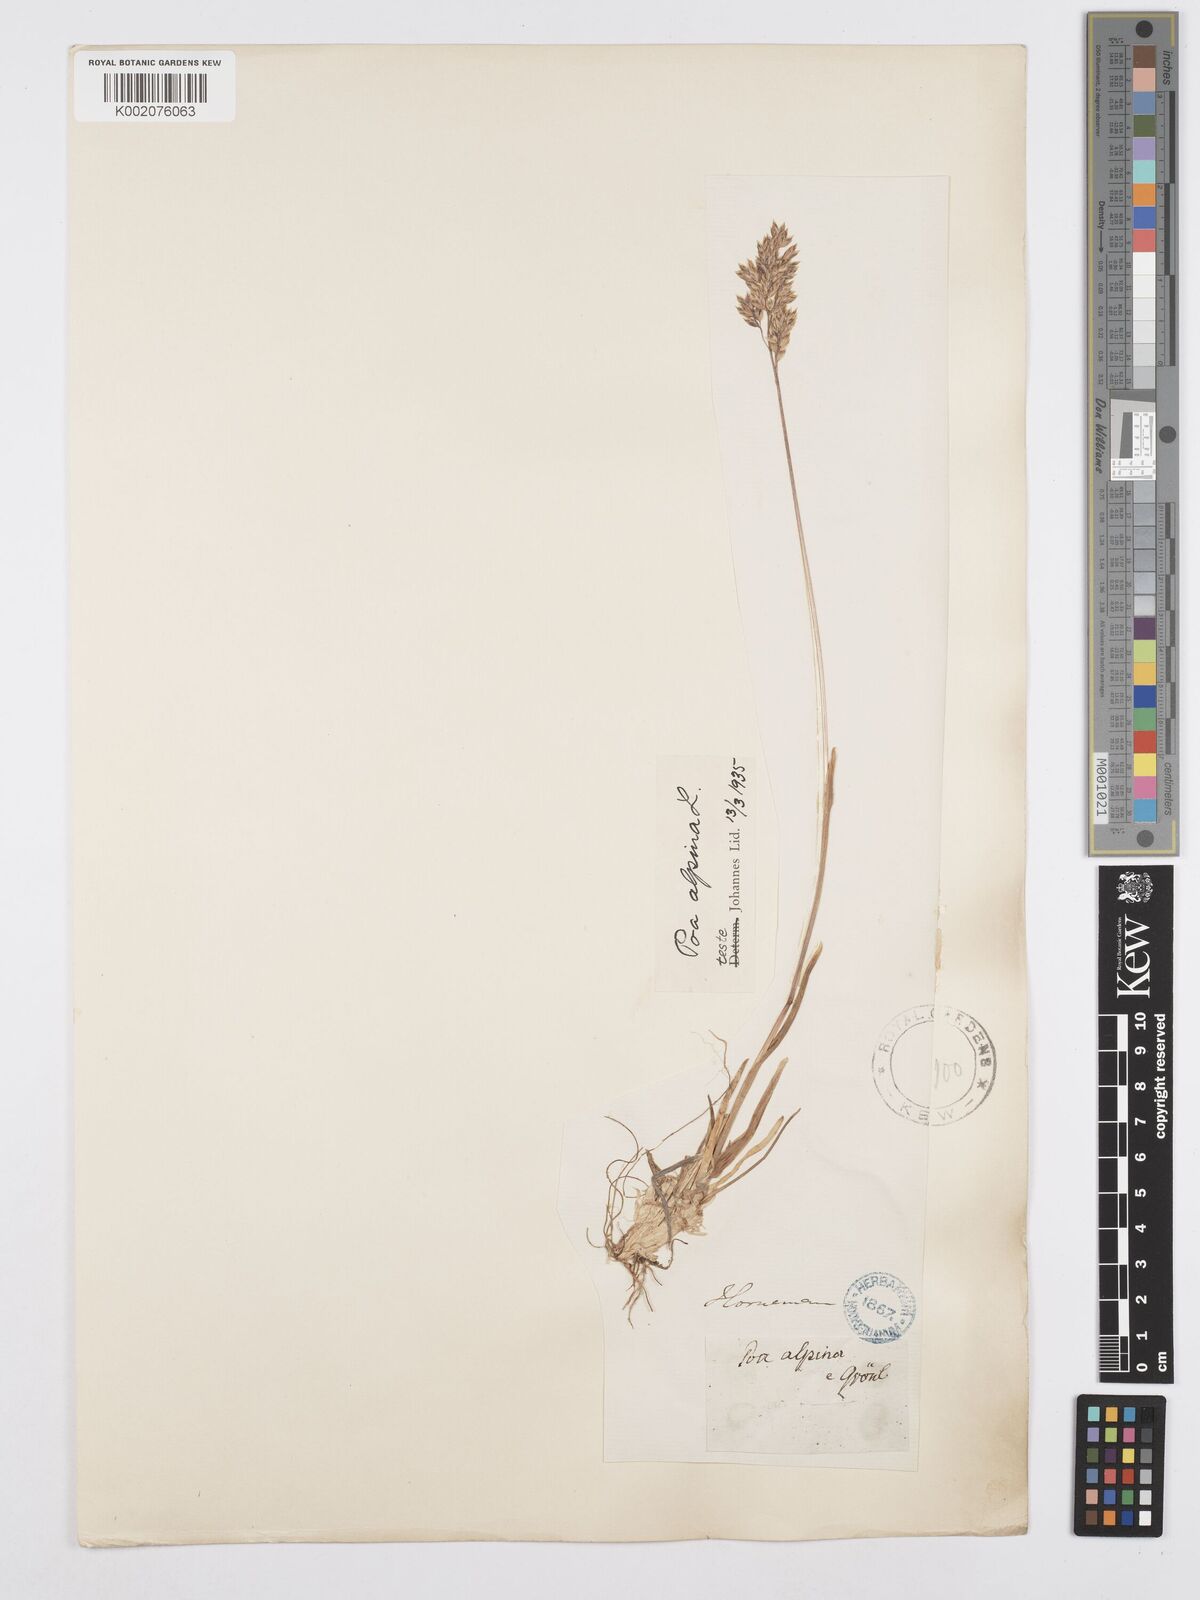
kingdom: Plantae
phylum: Tracheophyta
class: Liliopsida
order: Poales
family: Poaceae
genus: Poa
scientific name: Poa alpina
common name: Alpine bluegrass
